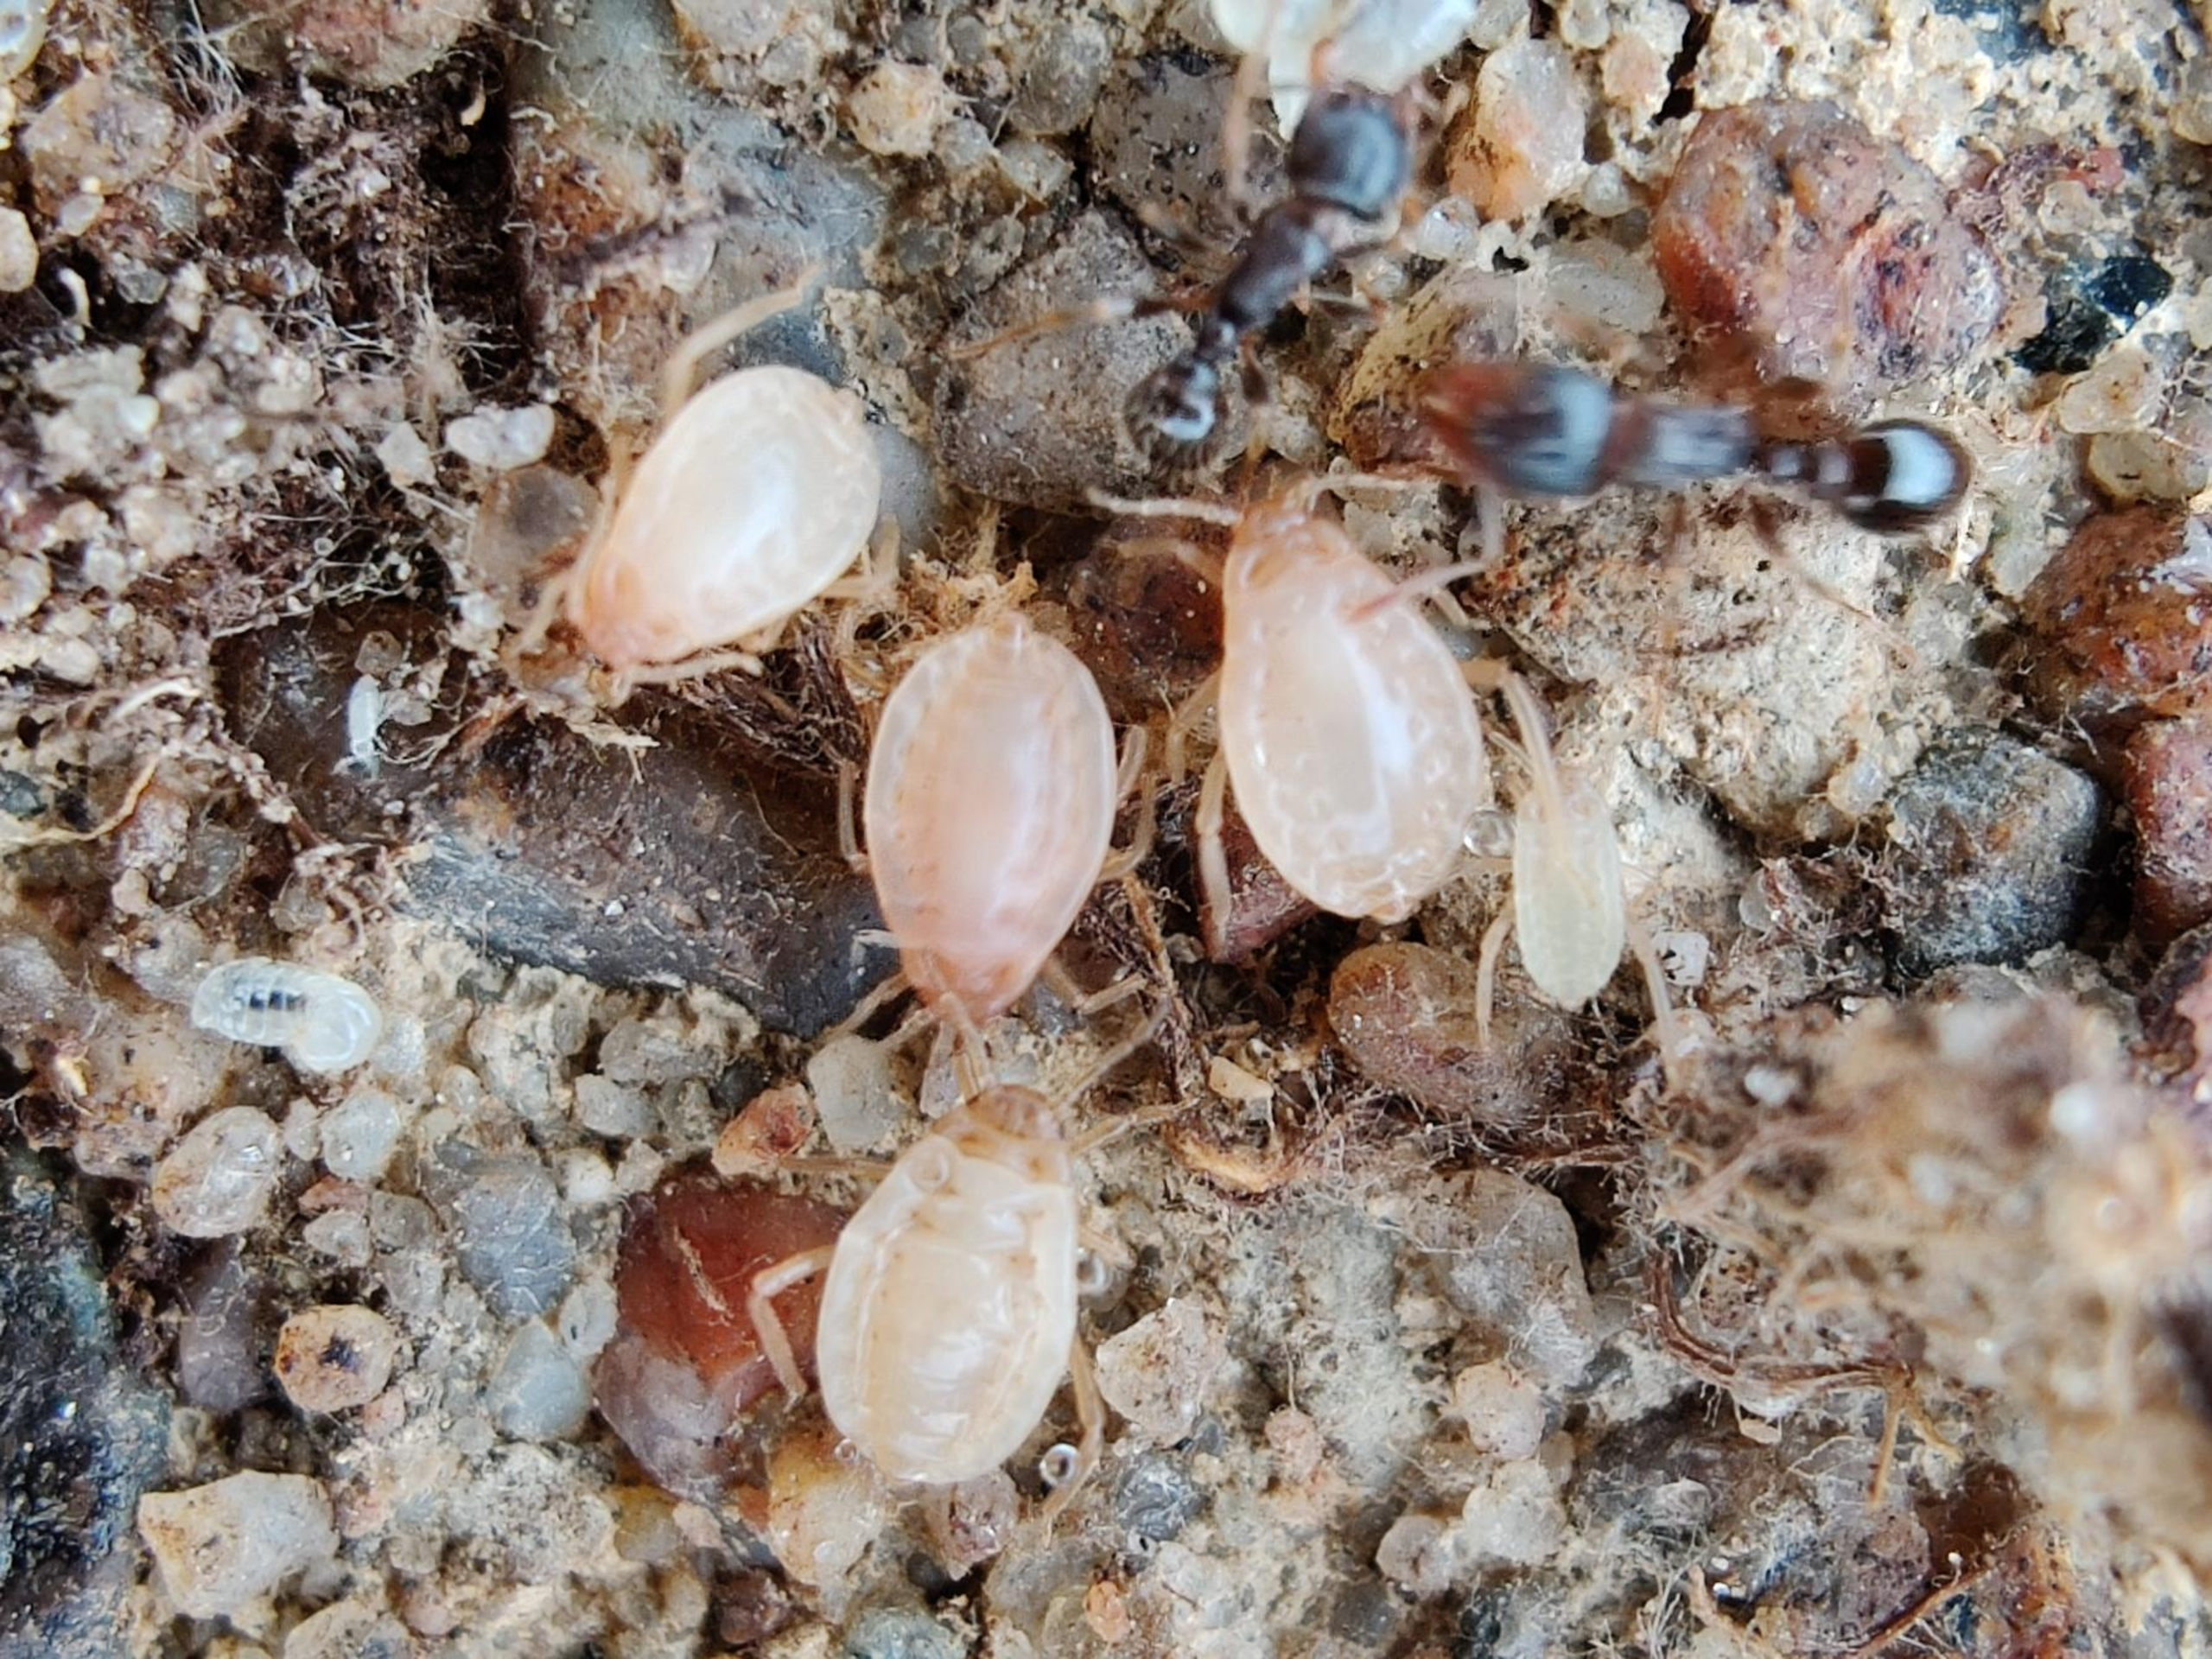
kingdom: Animalia
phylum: Arthropoda
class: Insecta
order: Hemiptera
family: Aphididae
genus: Paracletus
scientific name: Paracletus cimiciformis
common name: Vampyrrodlus
